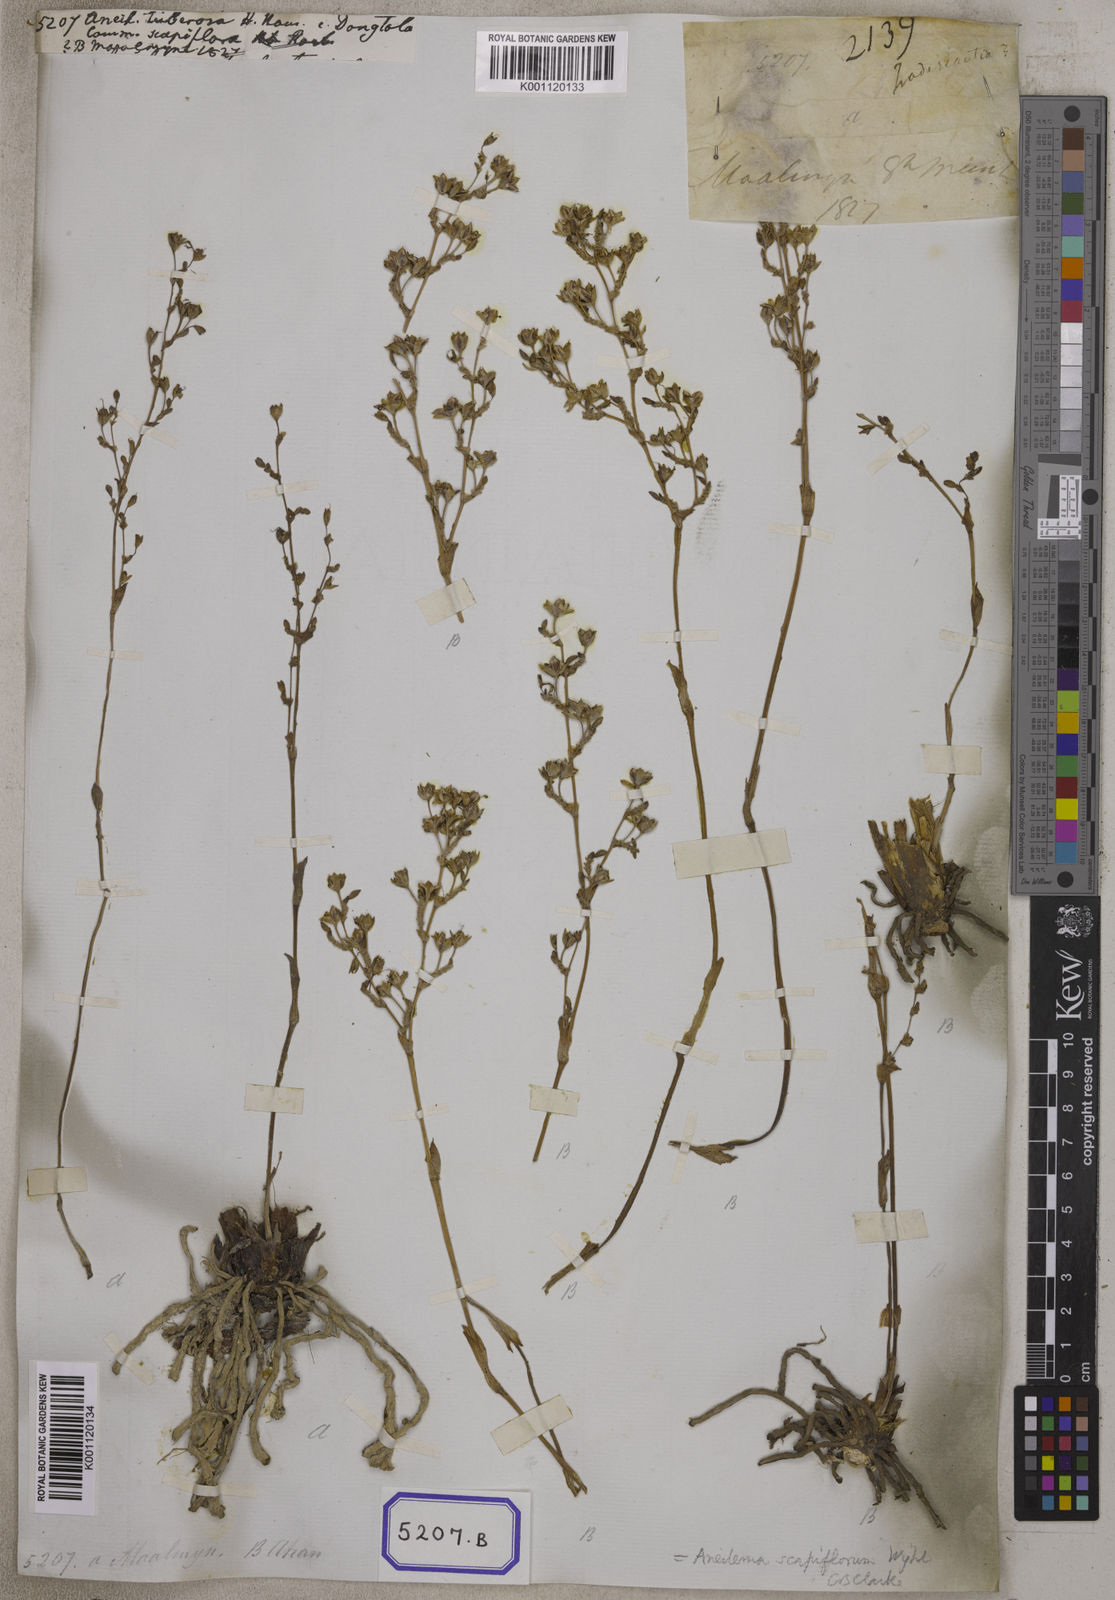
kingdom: Plantae
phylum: Tracheophyta
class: Liliopsida
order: Commelinales
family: Commelinaceae
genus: Aneilema
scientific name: Aneilema
